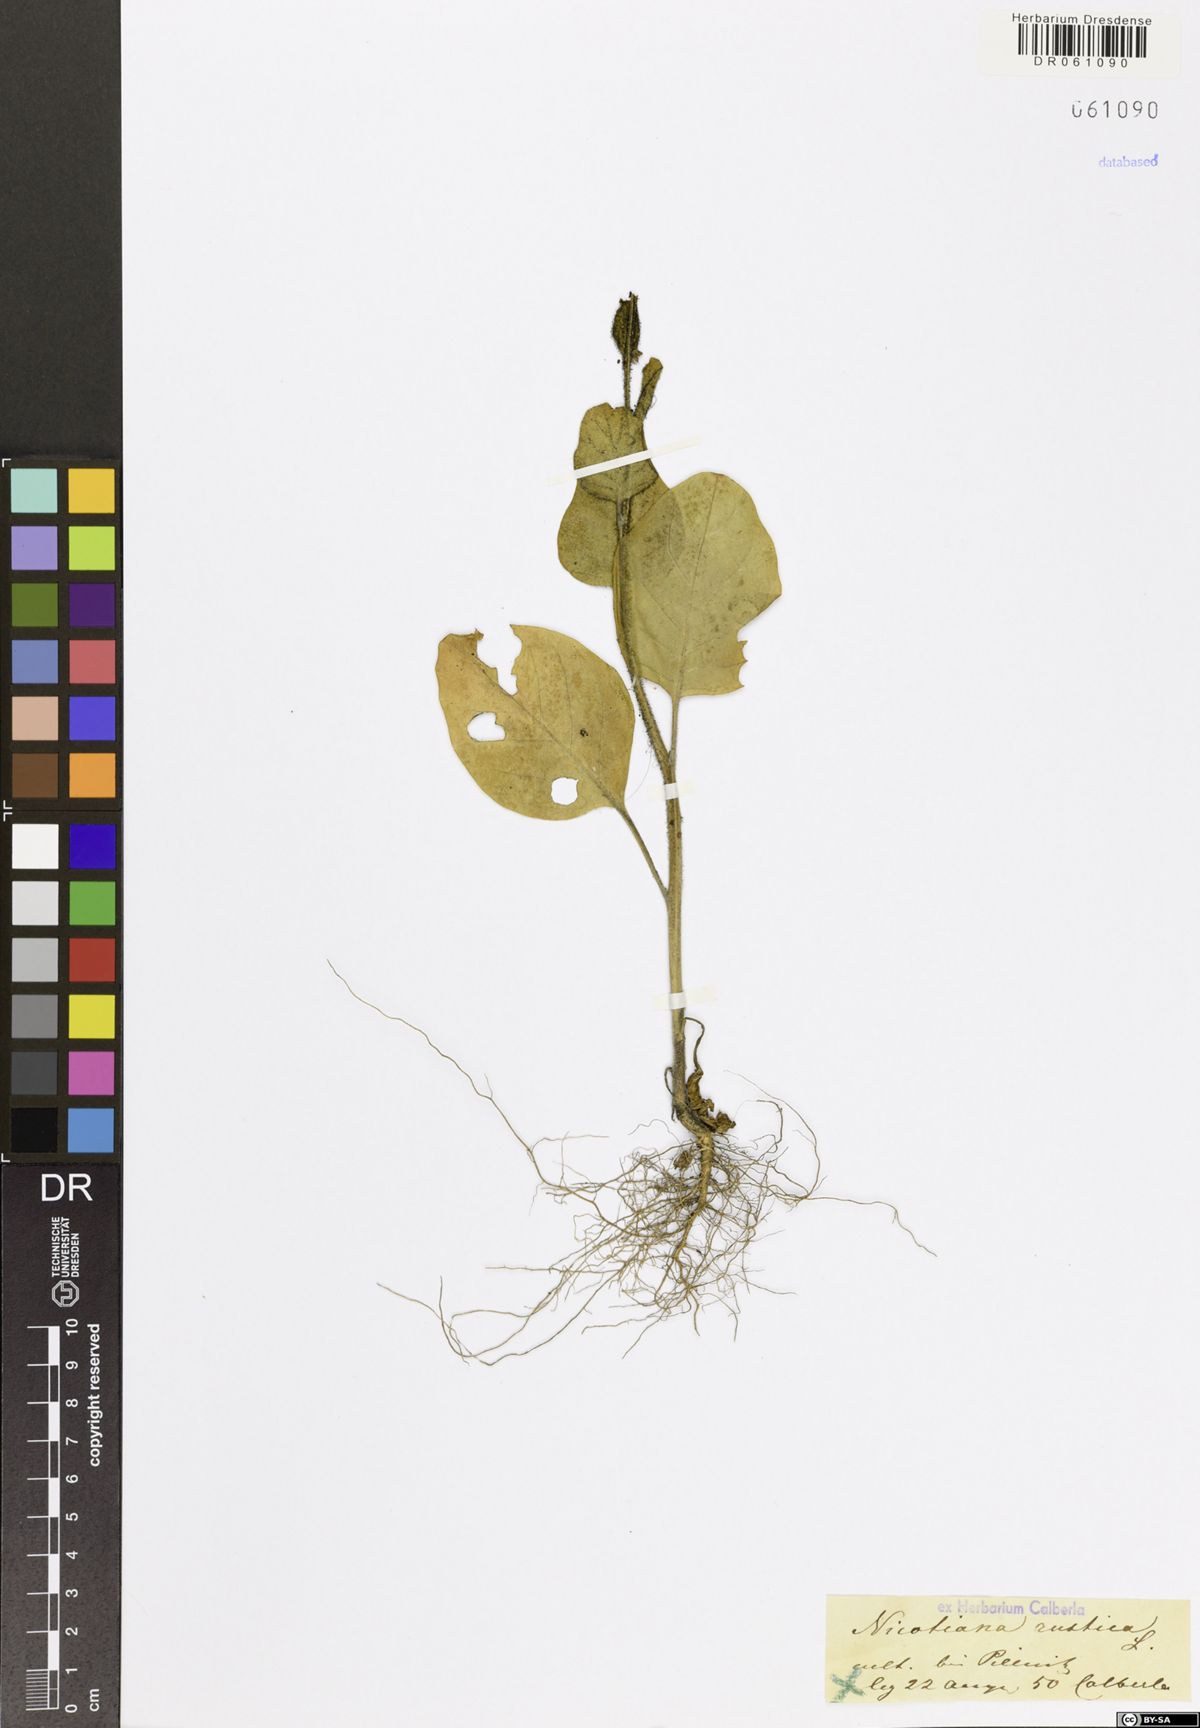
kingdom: Plantae
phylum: Tracheophyta
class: Magnoliopsida
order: Solanales
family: Solanaceae
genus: Nicotiana
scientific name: Nicotiana rustica
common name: Wild tobacco
